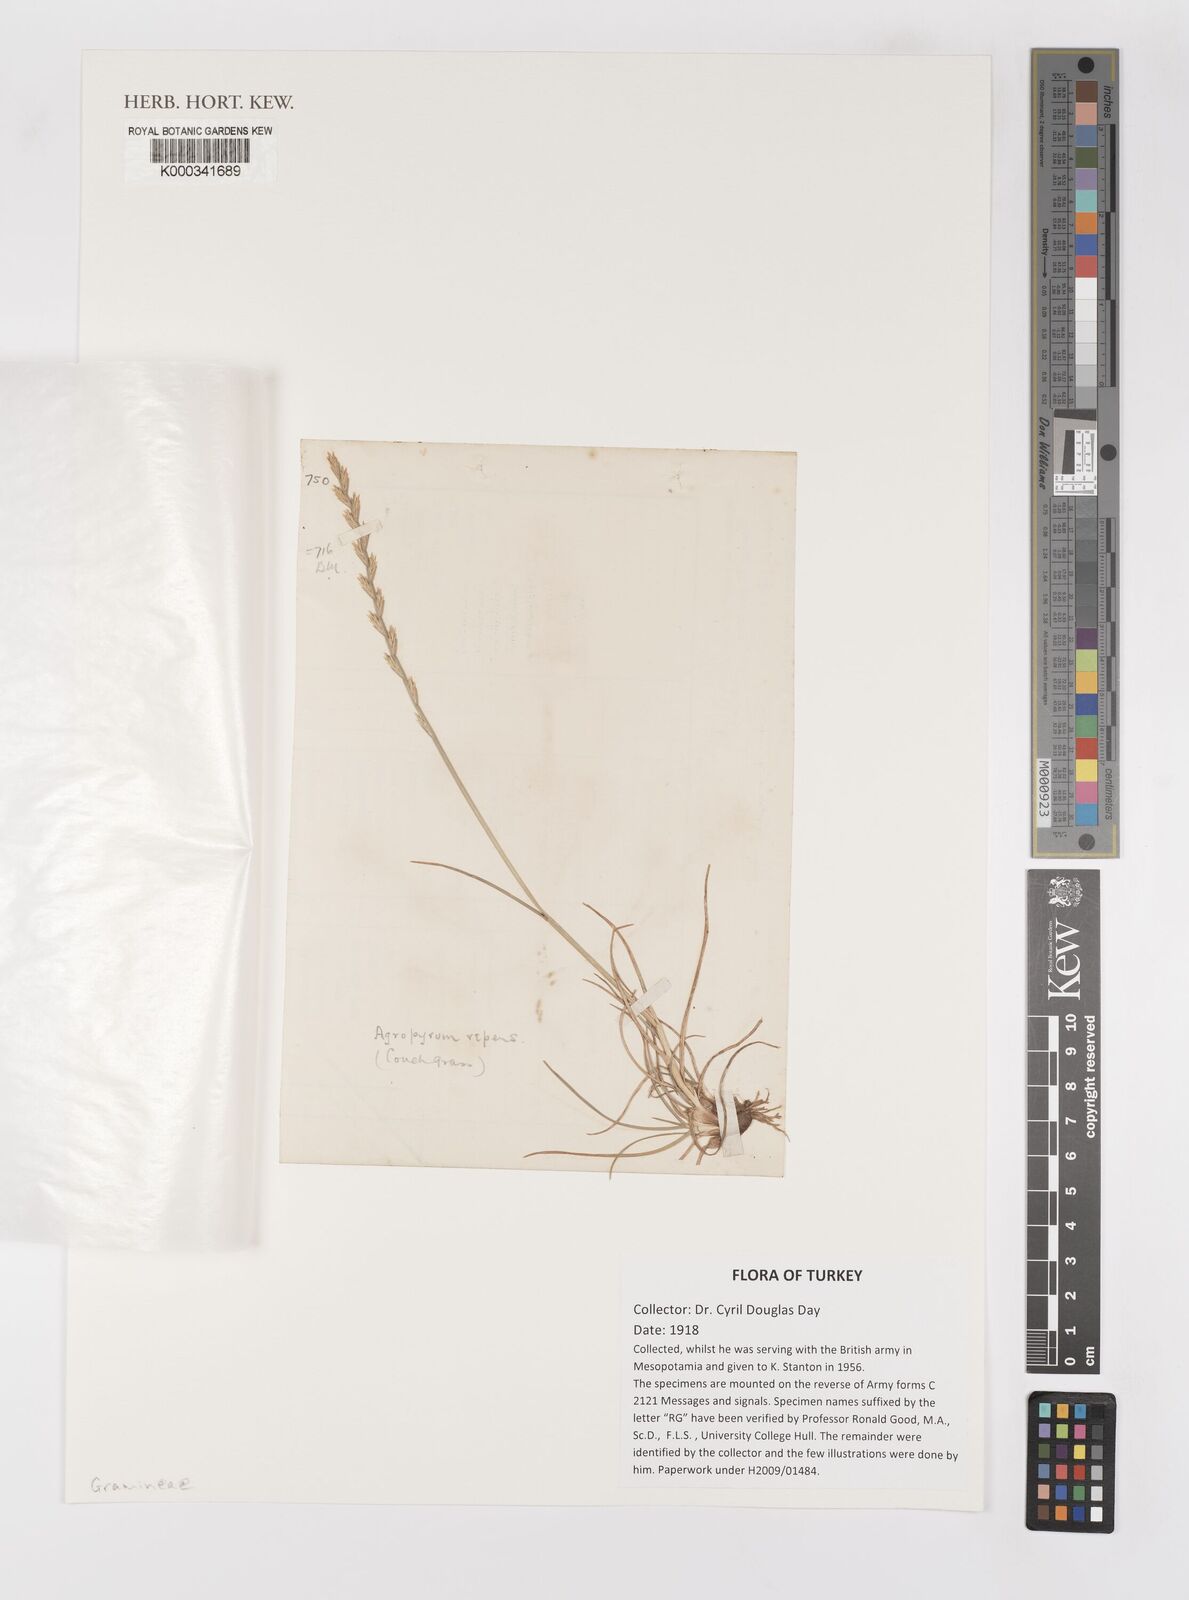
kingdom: Plantae
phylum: Tracheophyta
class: Liliopsida
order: Poales
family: Poaceae
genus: Elymus
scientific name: Elymus repens
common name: Quackgrass
